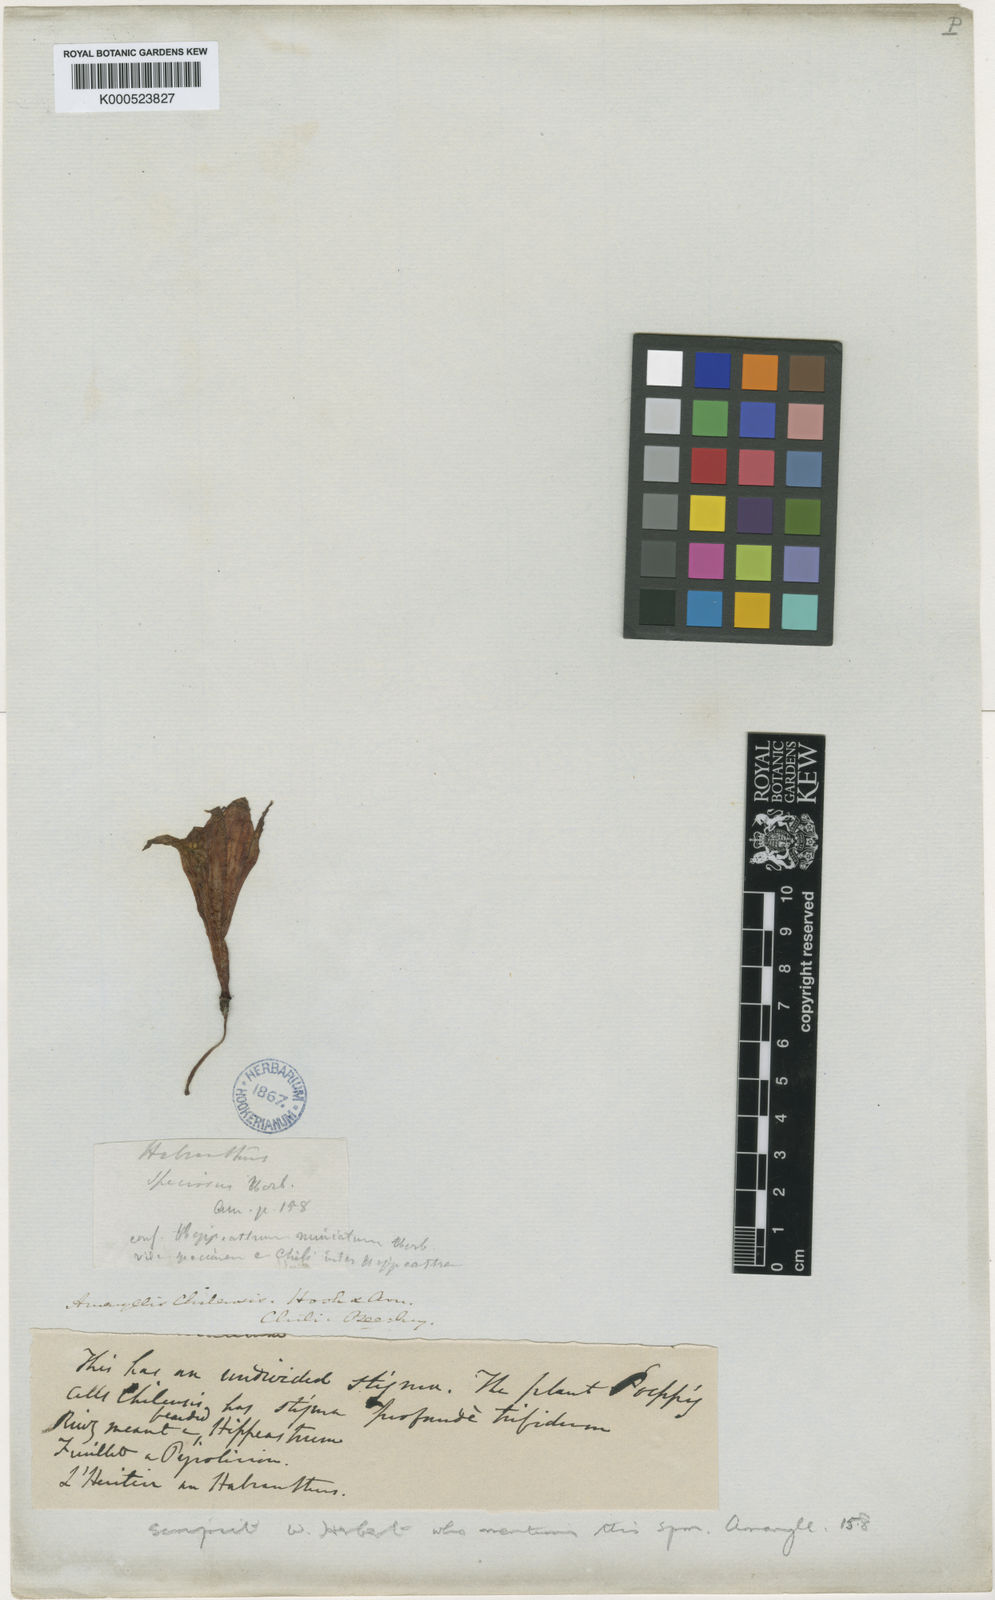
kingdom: Plantae
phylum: Tracheophyta
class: Liliopsida
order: Asparagales
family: Amaryllidaceae
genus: Phycella
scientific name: Phycella chilensis
